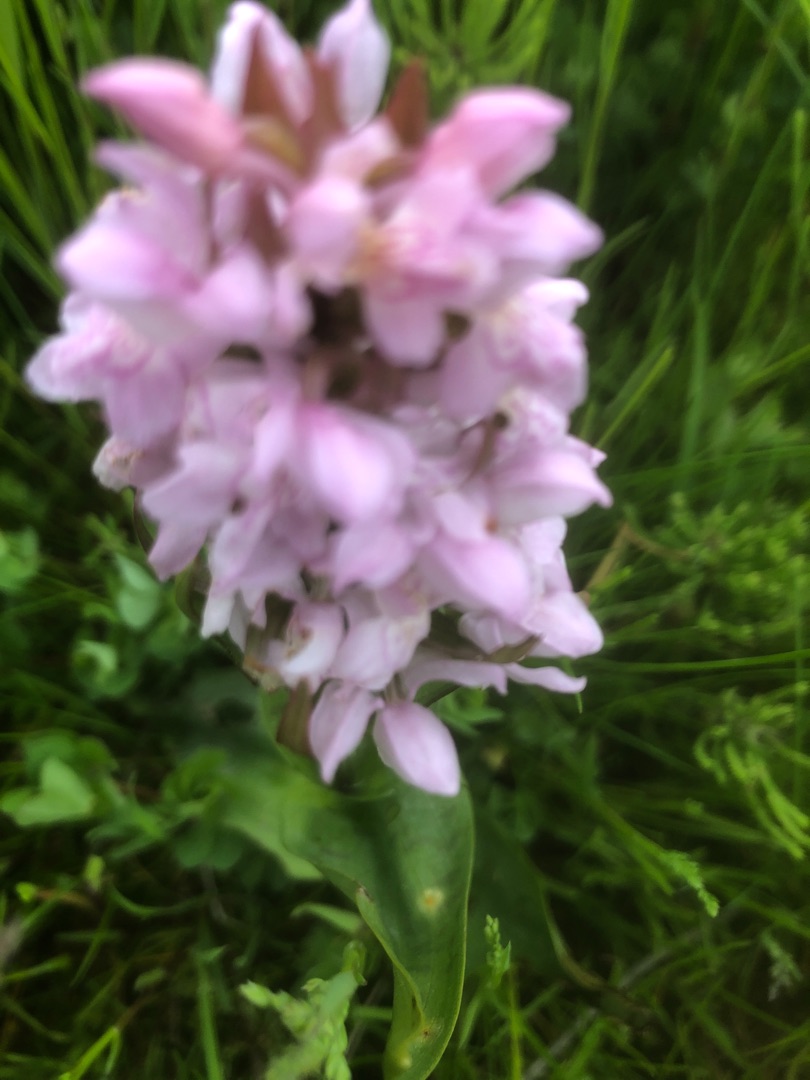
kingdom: Plantae
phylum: Tracheophyta
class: Liliopsida
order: Asparagales
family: Orchidaceae
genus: Dactylorhiza
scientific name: Dactylorhiza majalis
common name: Maj-gøgeurt
